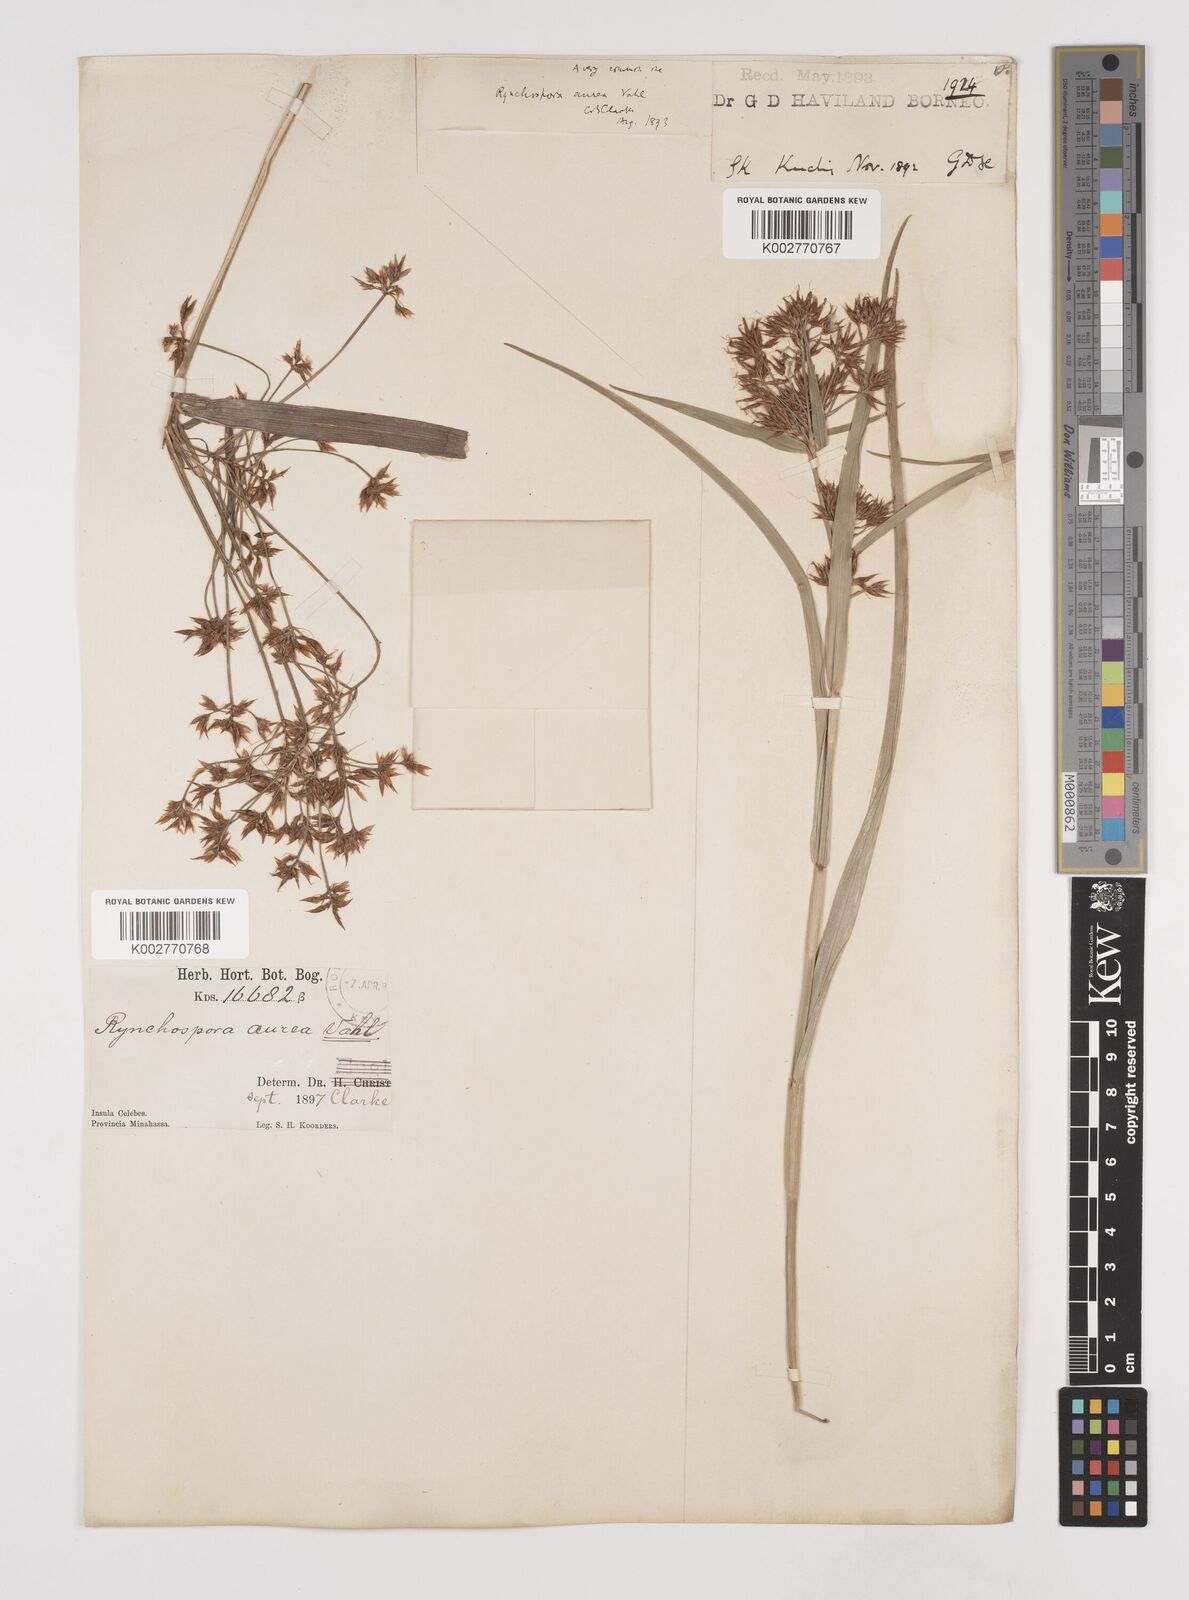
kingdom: Plantae
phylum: Tracheophyta
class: Liliopsida
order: Poales
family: Cyperaceae
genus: Rhynchospora
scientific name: Rhynchospora corymbosa
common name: Golden beak sedge
